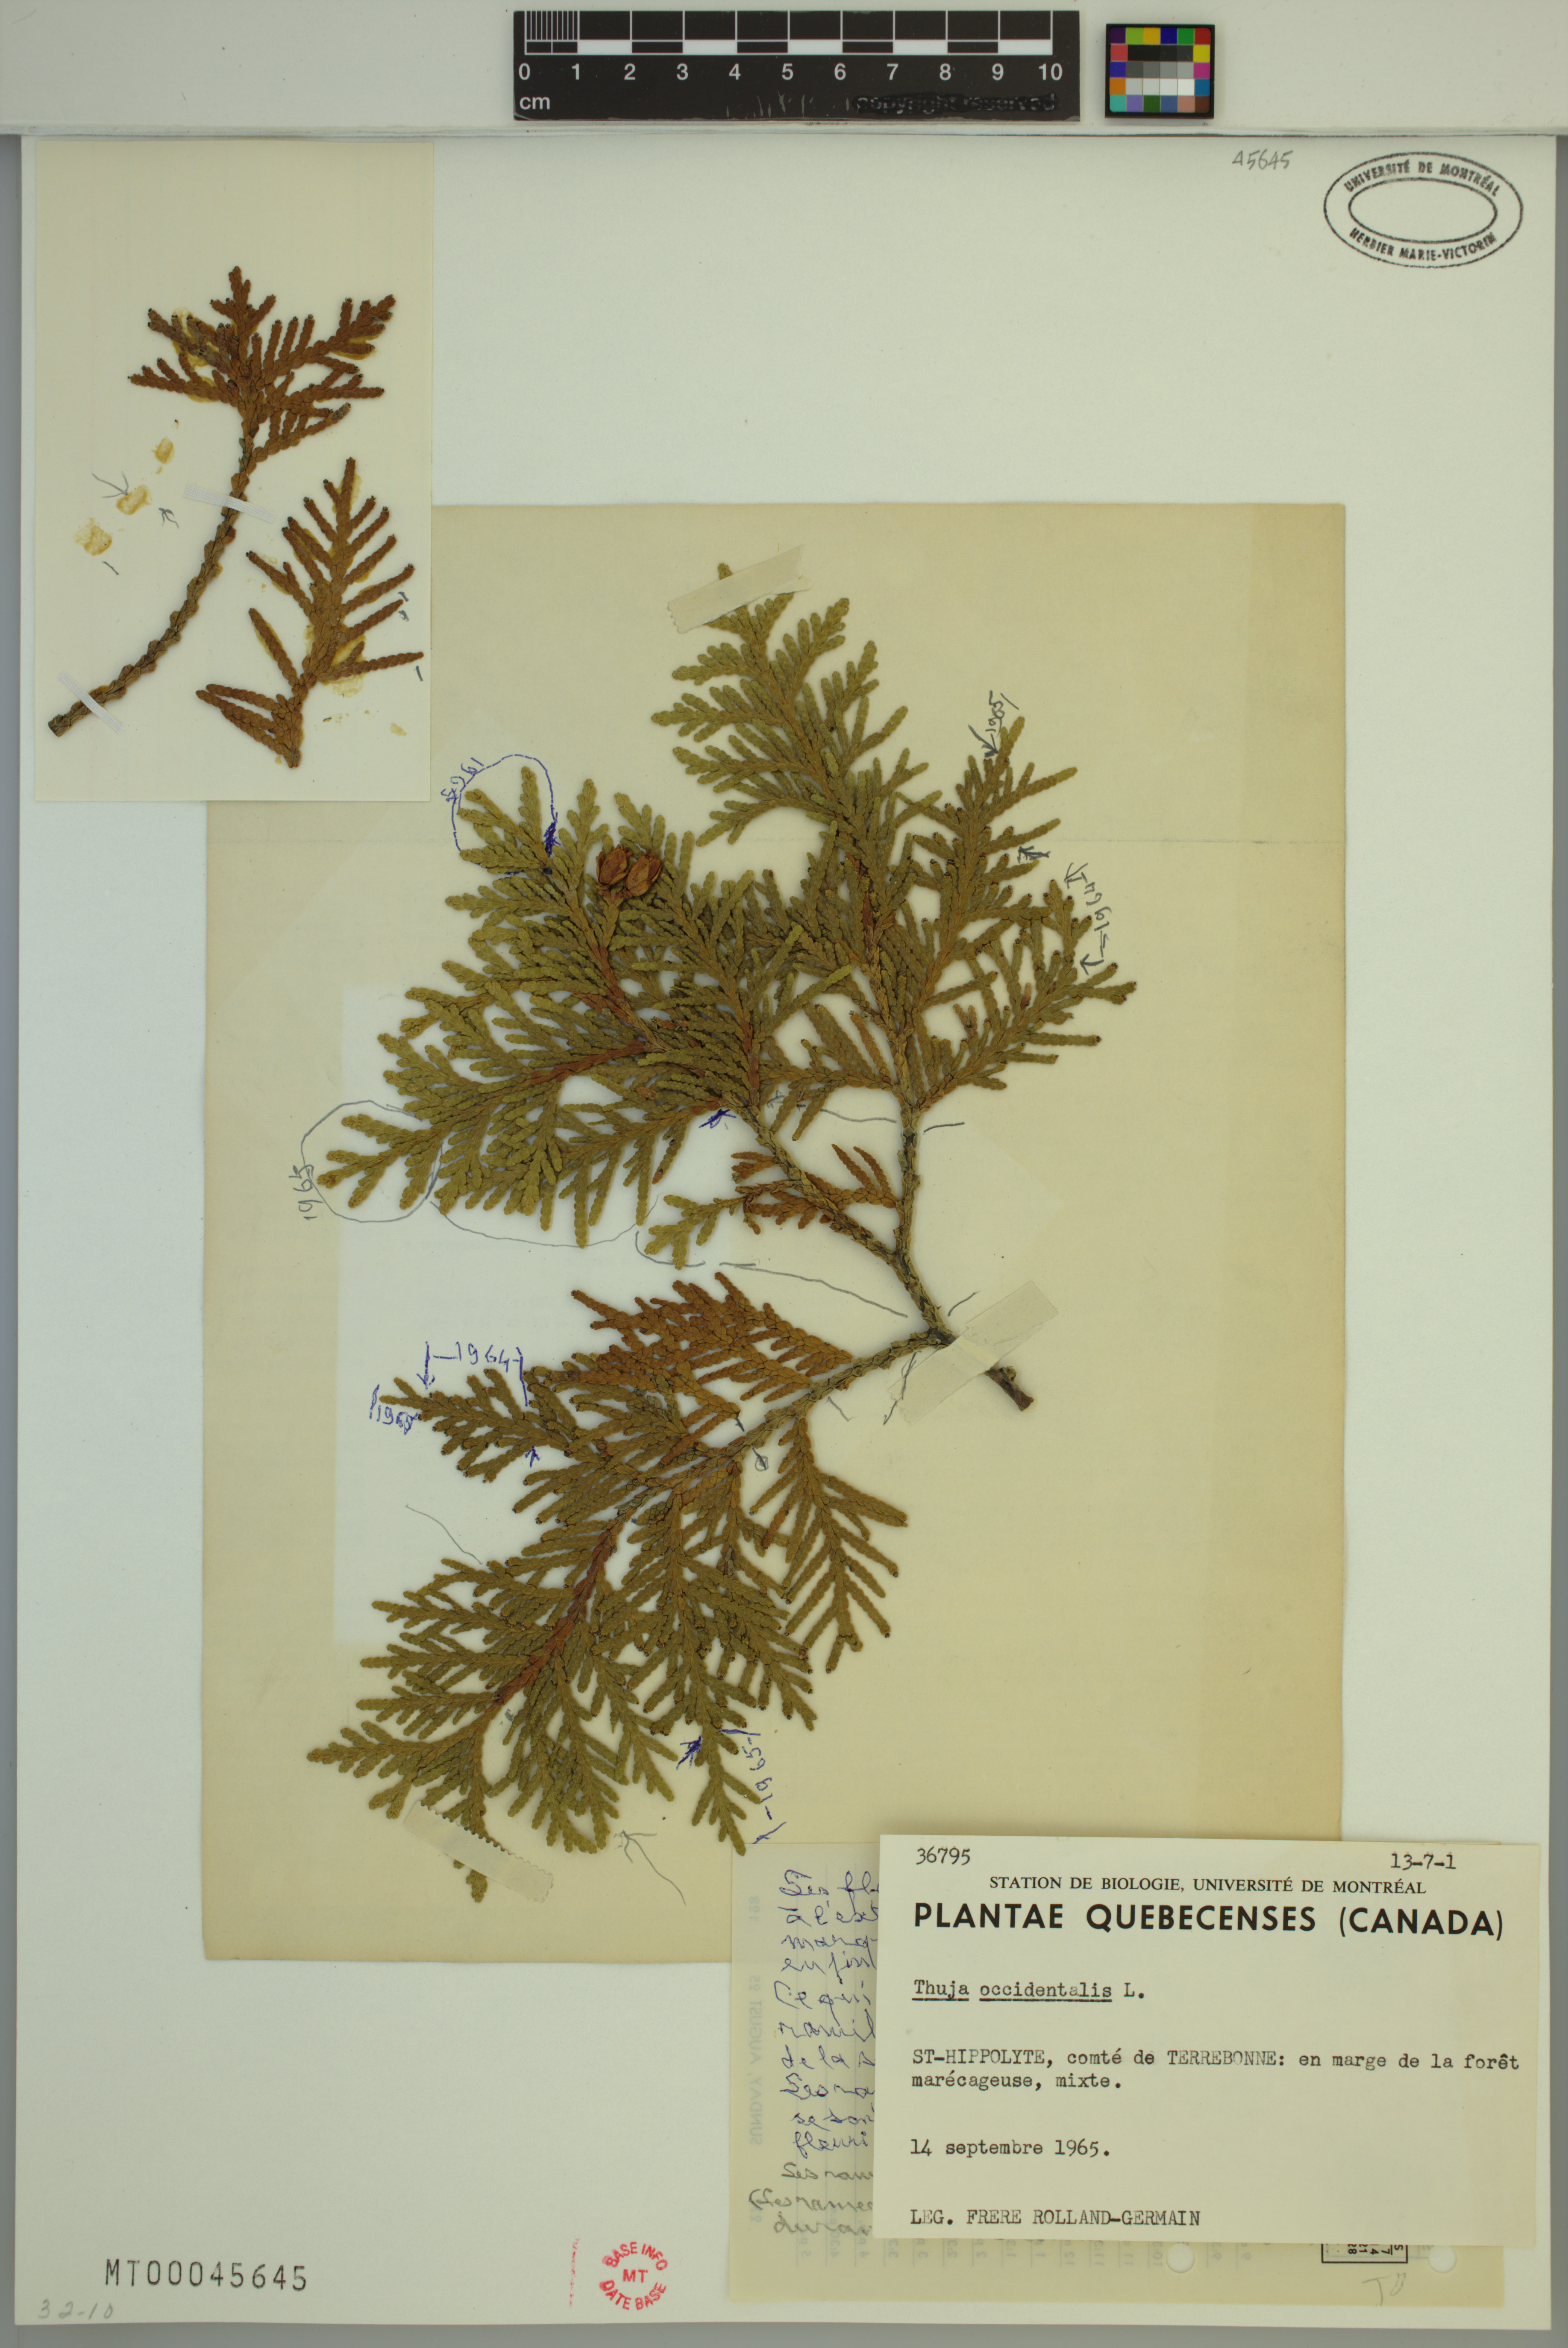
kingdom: Plantae
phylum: Tracheophyta
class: Pinopsida
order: Pinales
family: Cupressaceae
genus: Thuja
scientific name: Thuja occidentalis
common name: Northern white-cedar
